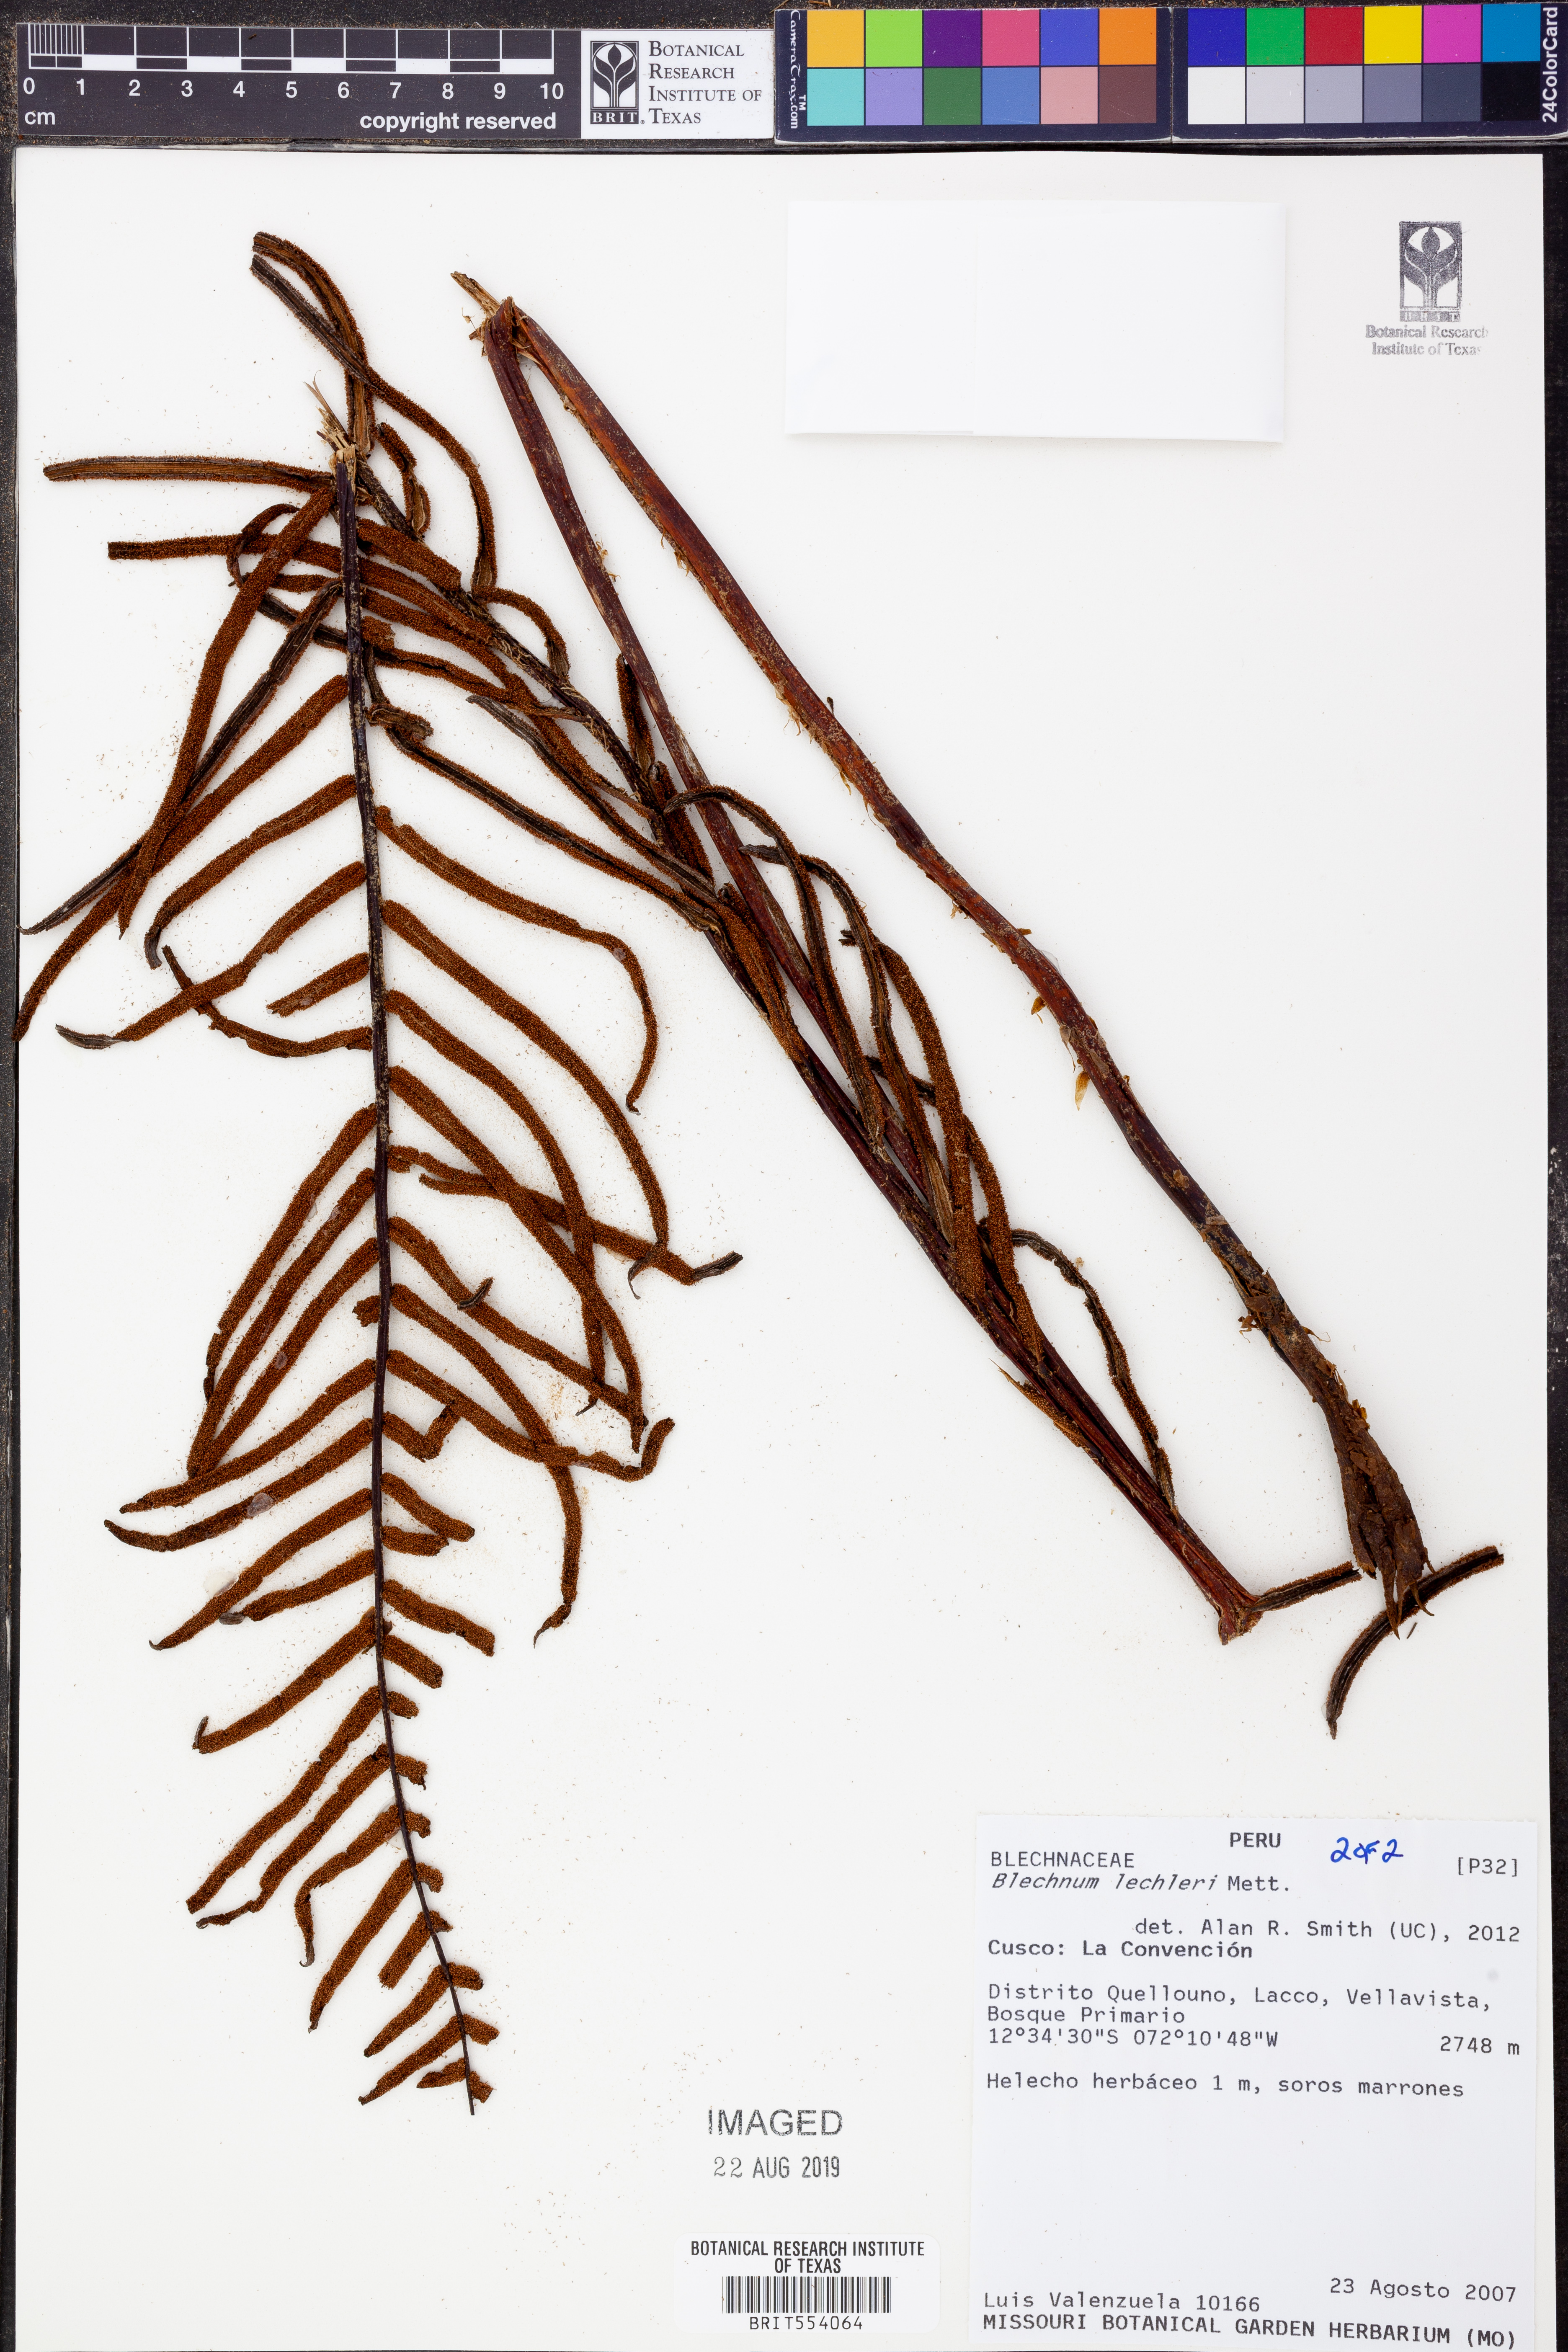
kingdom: Plantae
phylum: Tracheophyta
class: Polypodiopsida
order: Polypodiales
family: Blechnaceae
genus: Parablechnum
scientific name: Parablechnum lechleri
